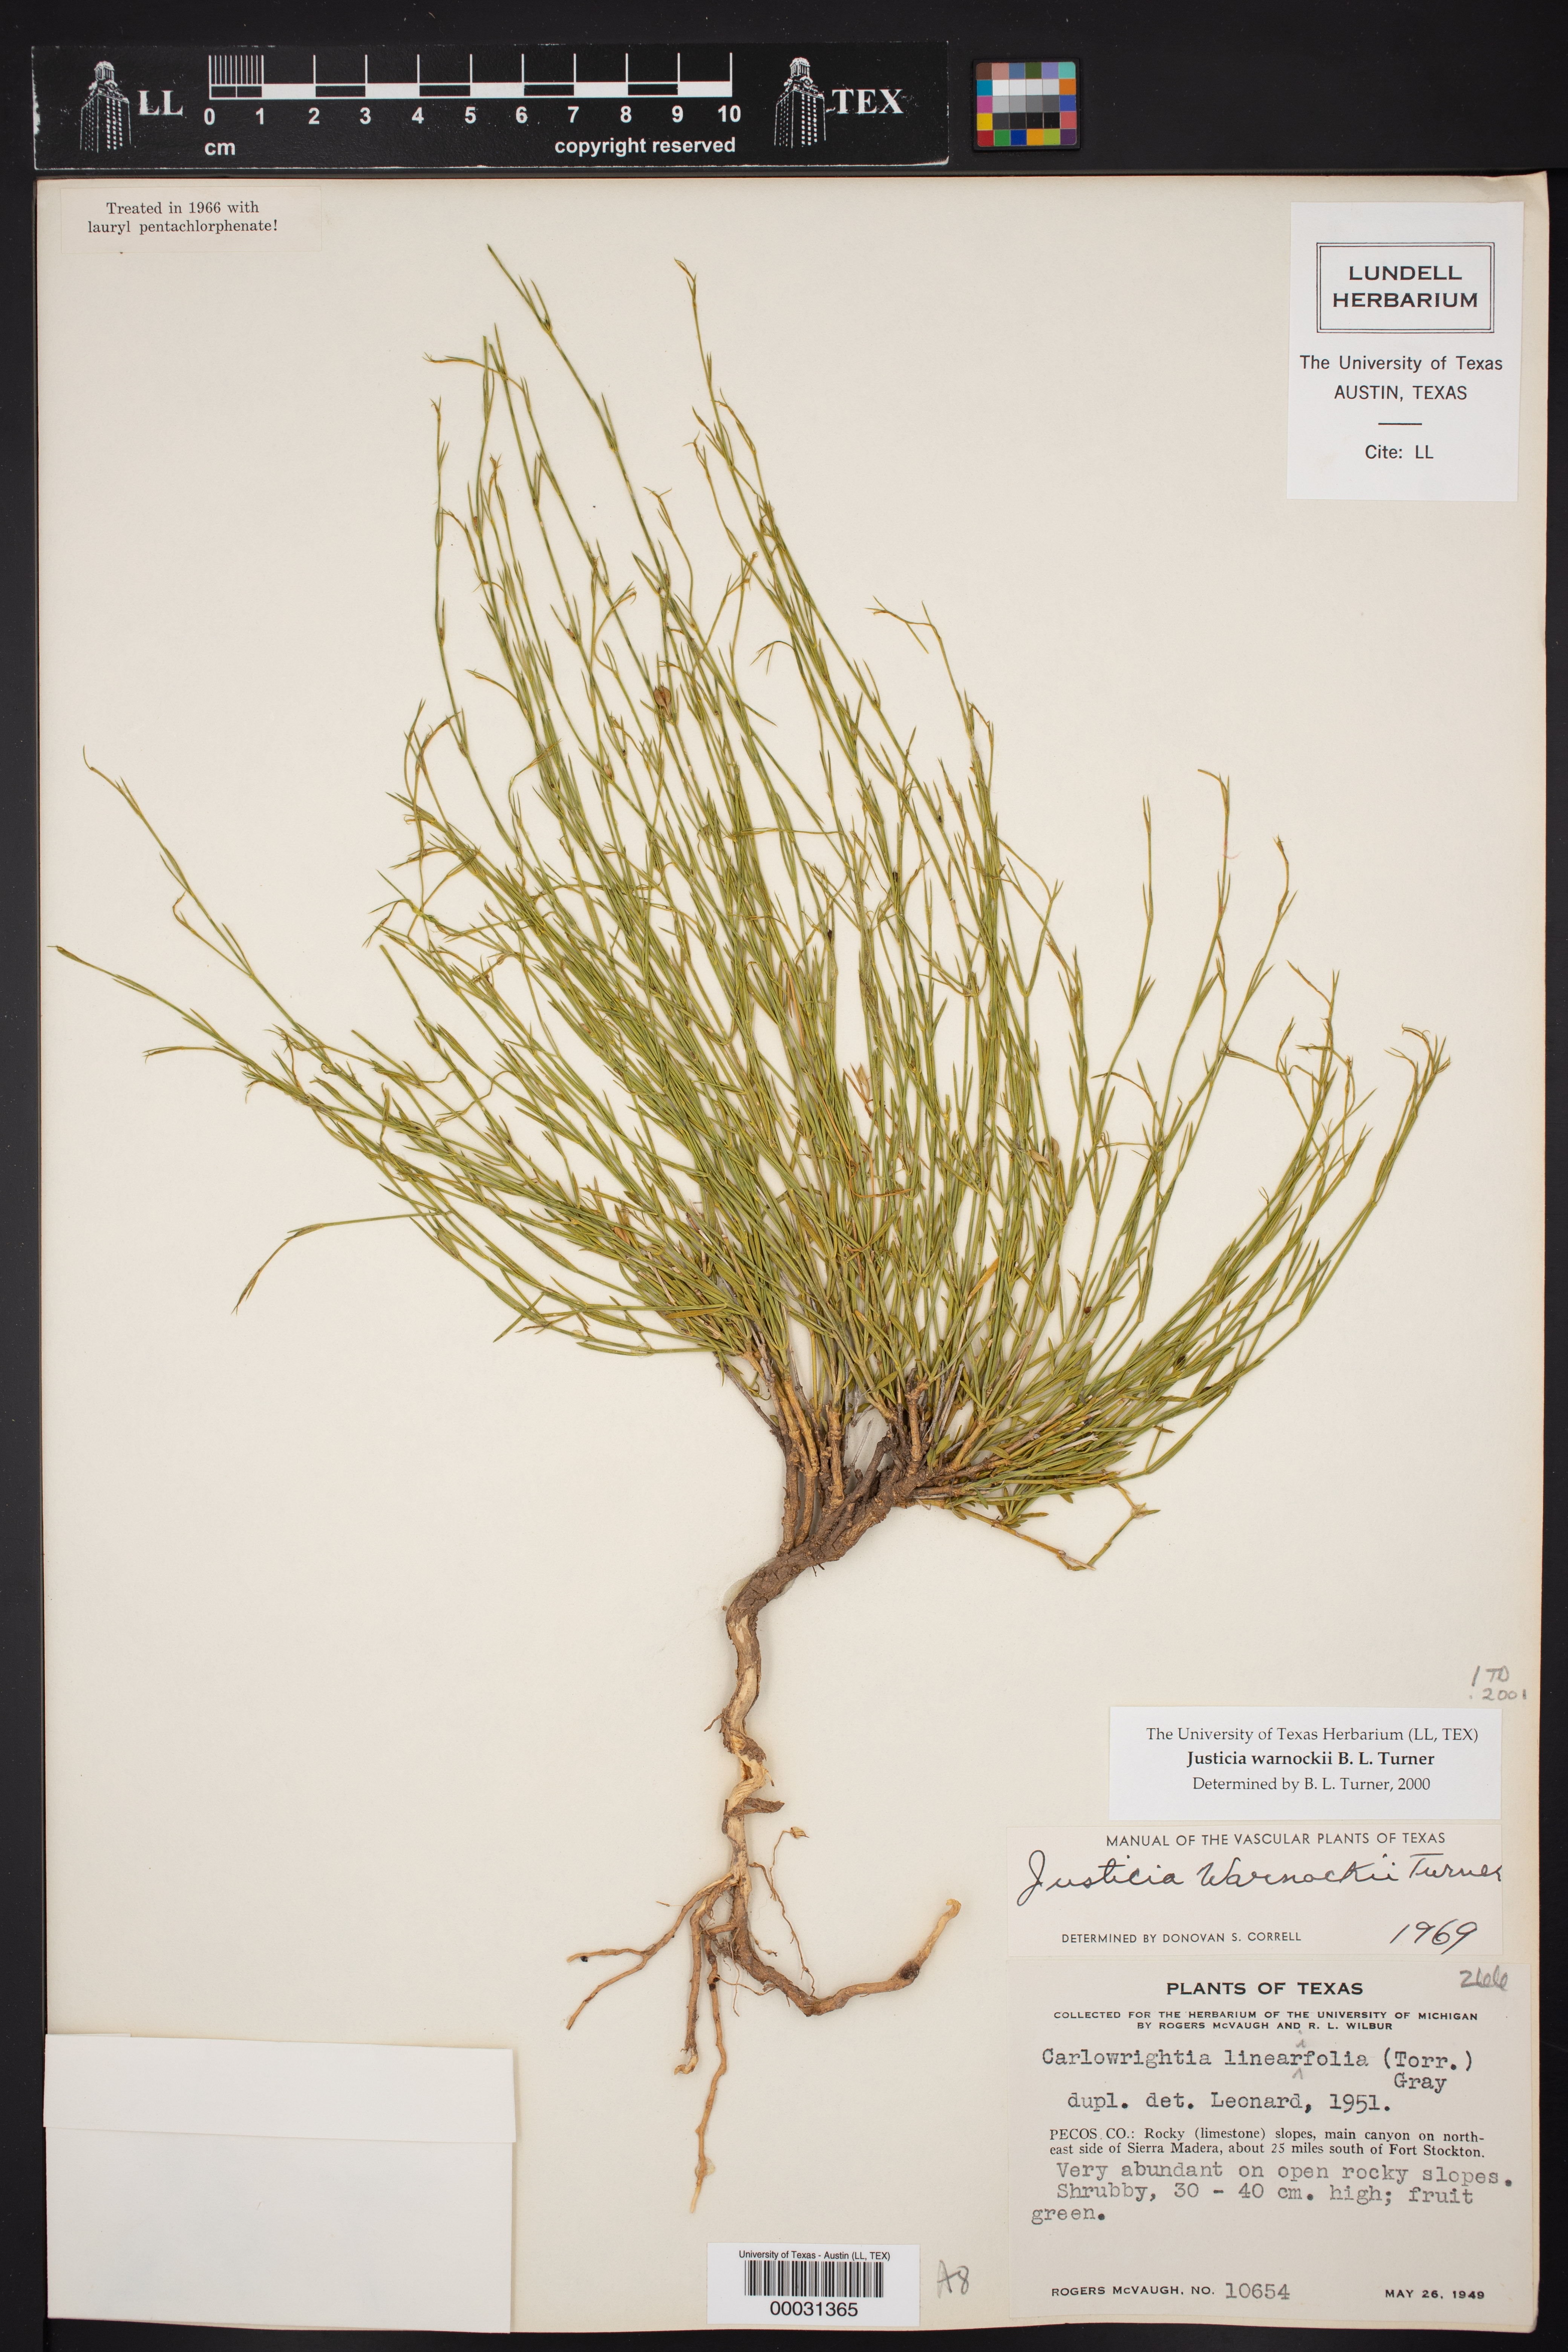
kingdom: Plantae
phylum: Tracheophyta
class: Magnoliopsida
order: Lamiales
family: Acanthaceae
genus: Justicia
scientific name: Justicia pilosella
